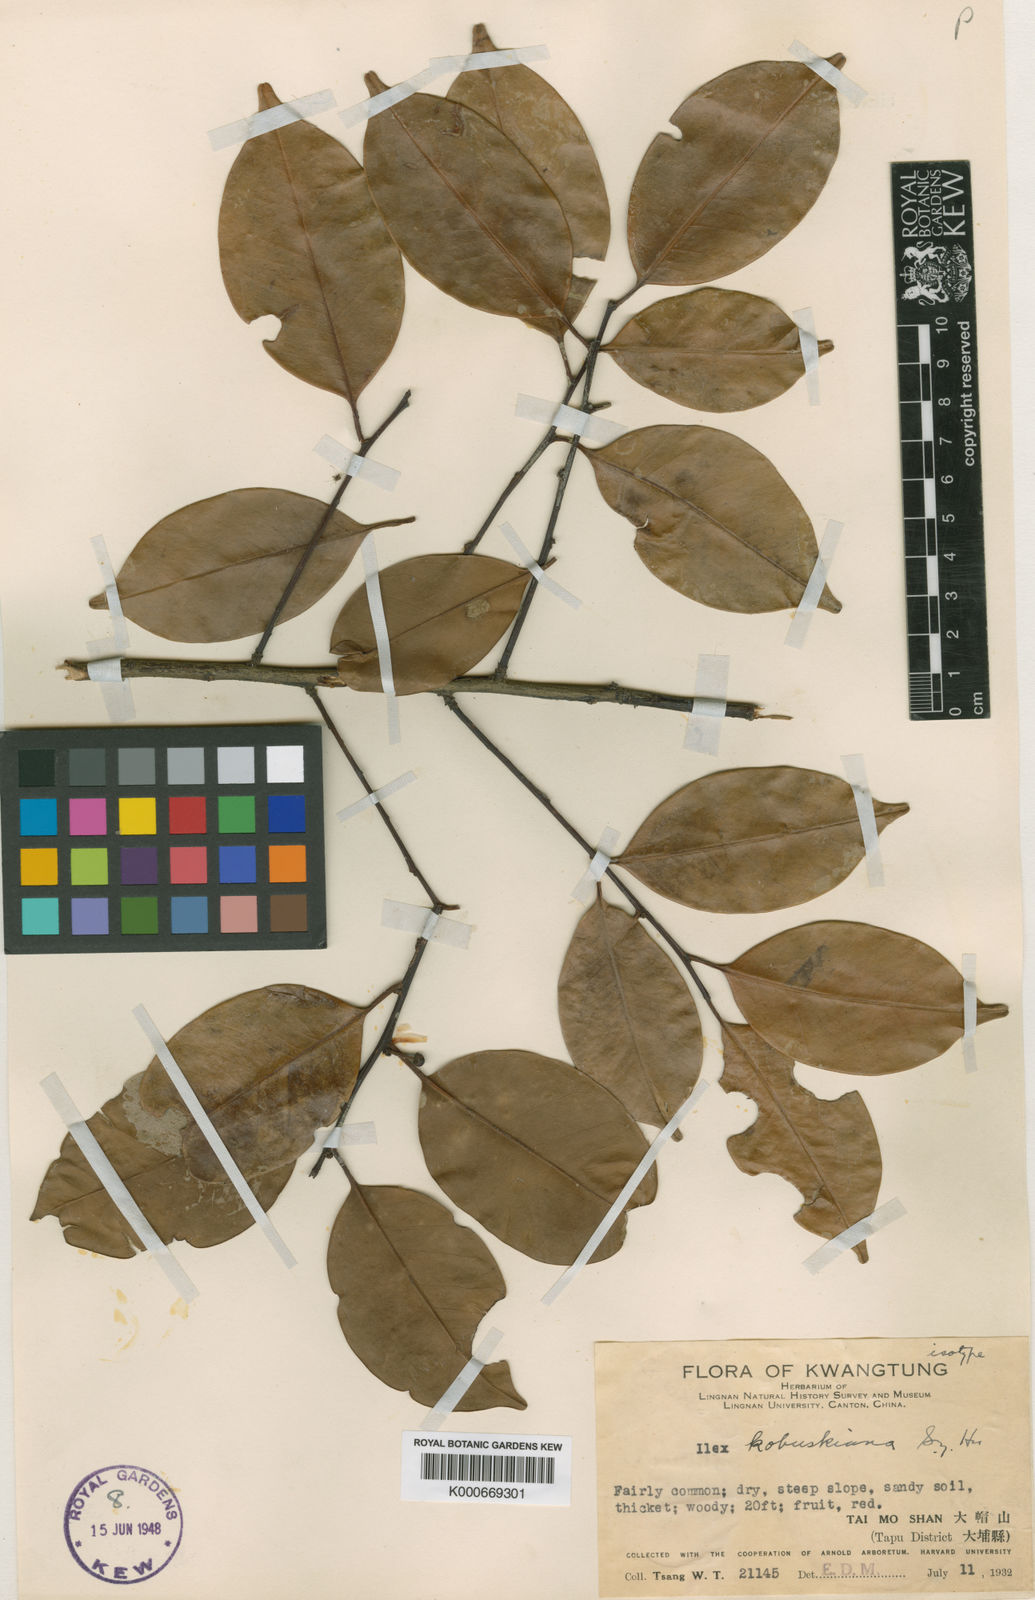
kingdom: Plantae
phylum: Tracheophyta
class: Magnoliopsida
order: Aquifoliales
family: Aquifoliaceae
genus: Ilex
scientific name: Ilex kobuskiana
